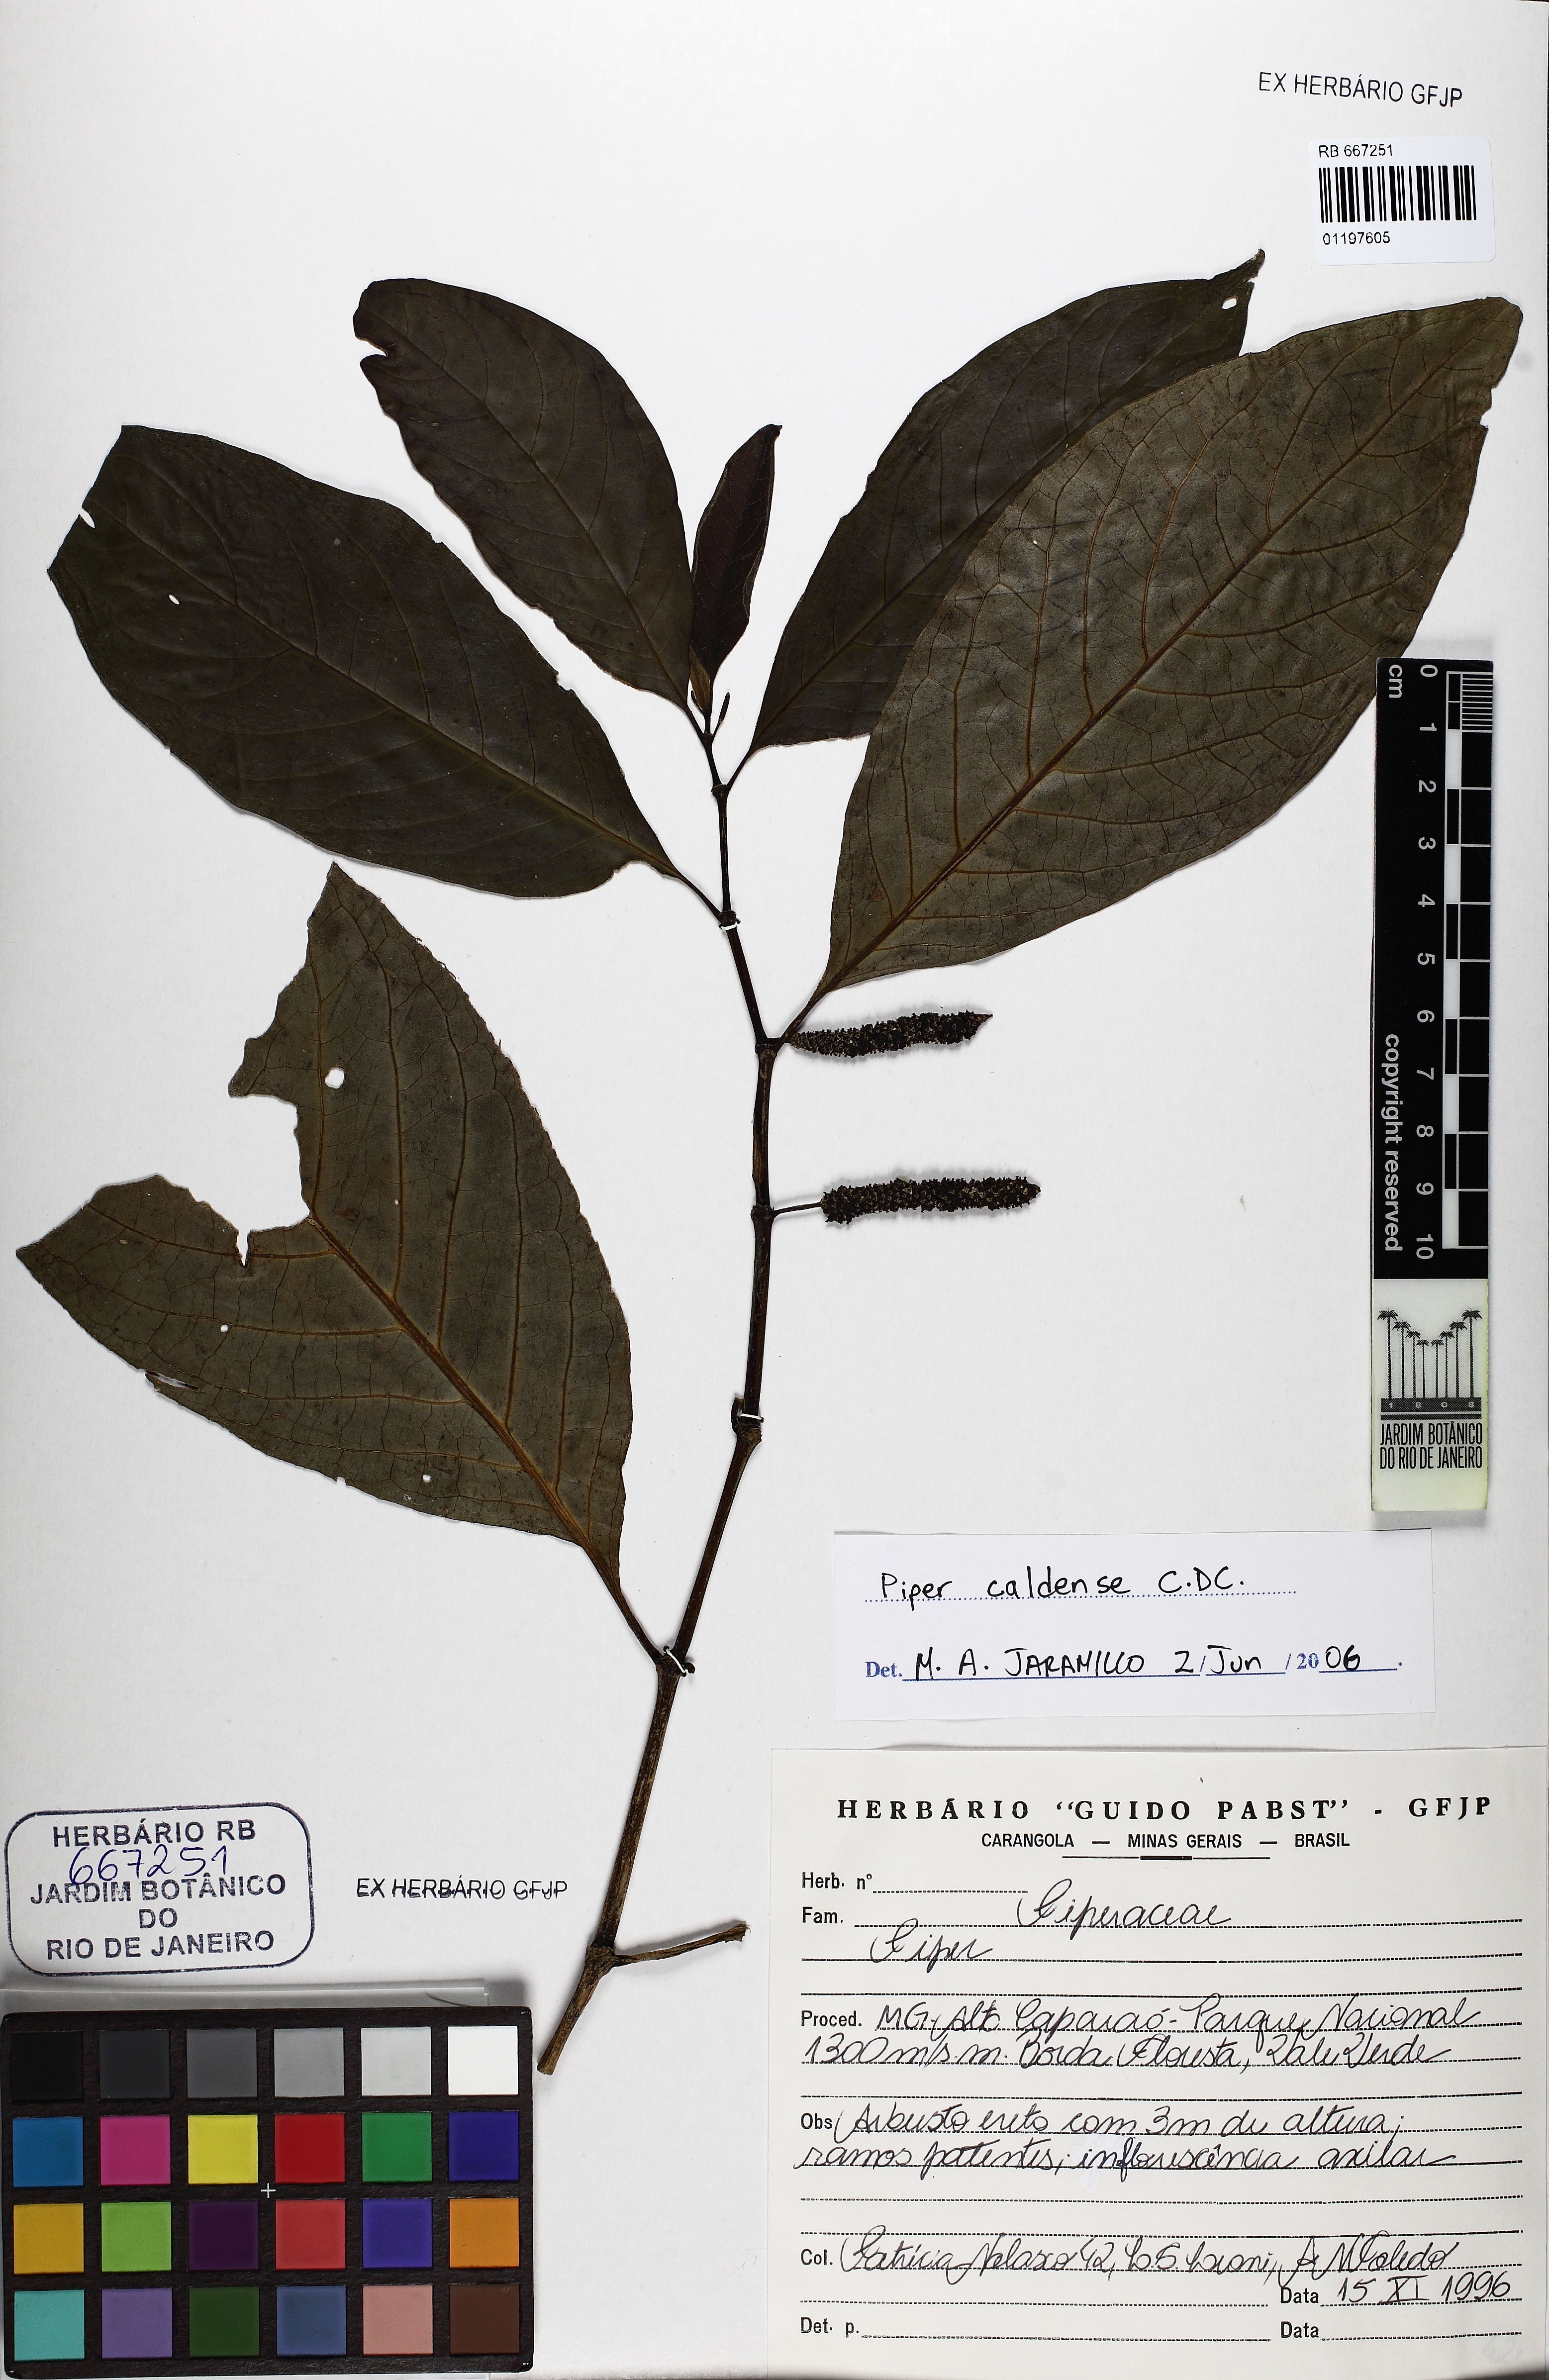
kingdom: Plantae
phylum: Tracheophyta
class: Magnoliopsida
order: Piperales
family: Piperaceae
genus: Piper
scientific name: Piper caldense
